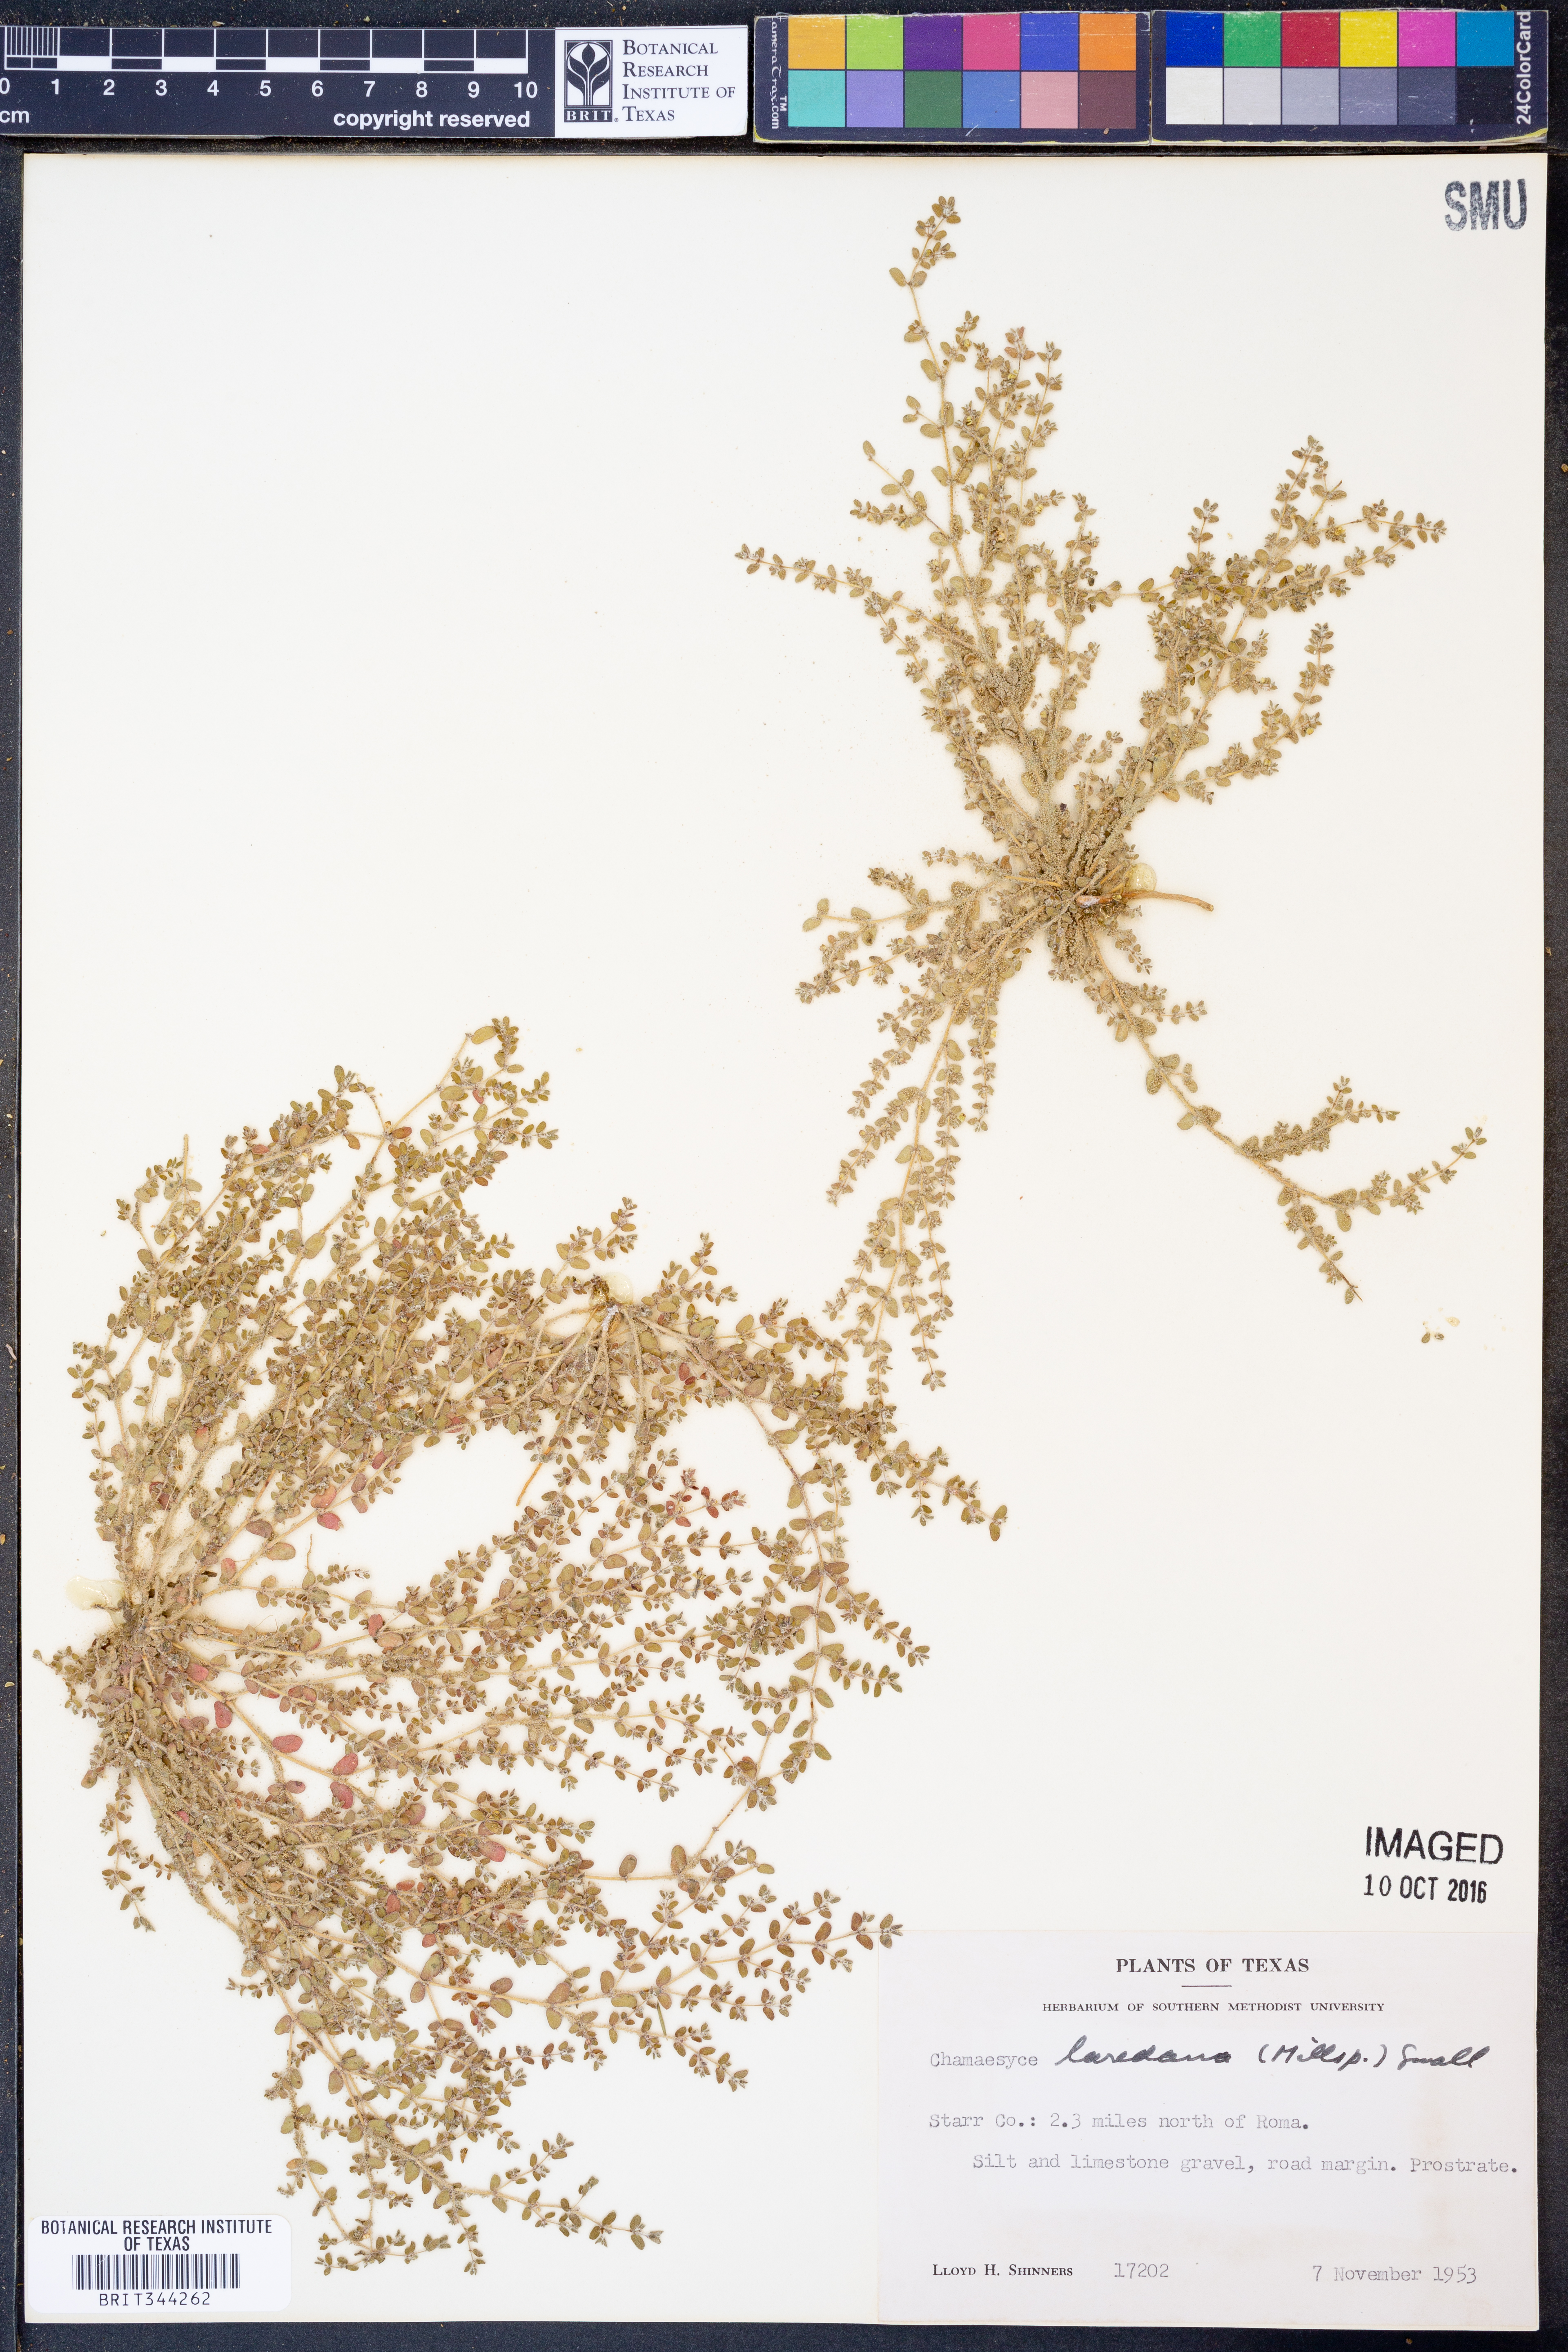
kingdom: Plantae
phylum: Tracheophyta
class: Magnoliopsida
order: Malpighiales
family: Euphorbiaceae
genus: Euphorbia
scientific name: Euphorbia laredana
